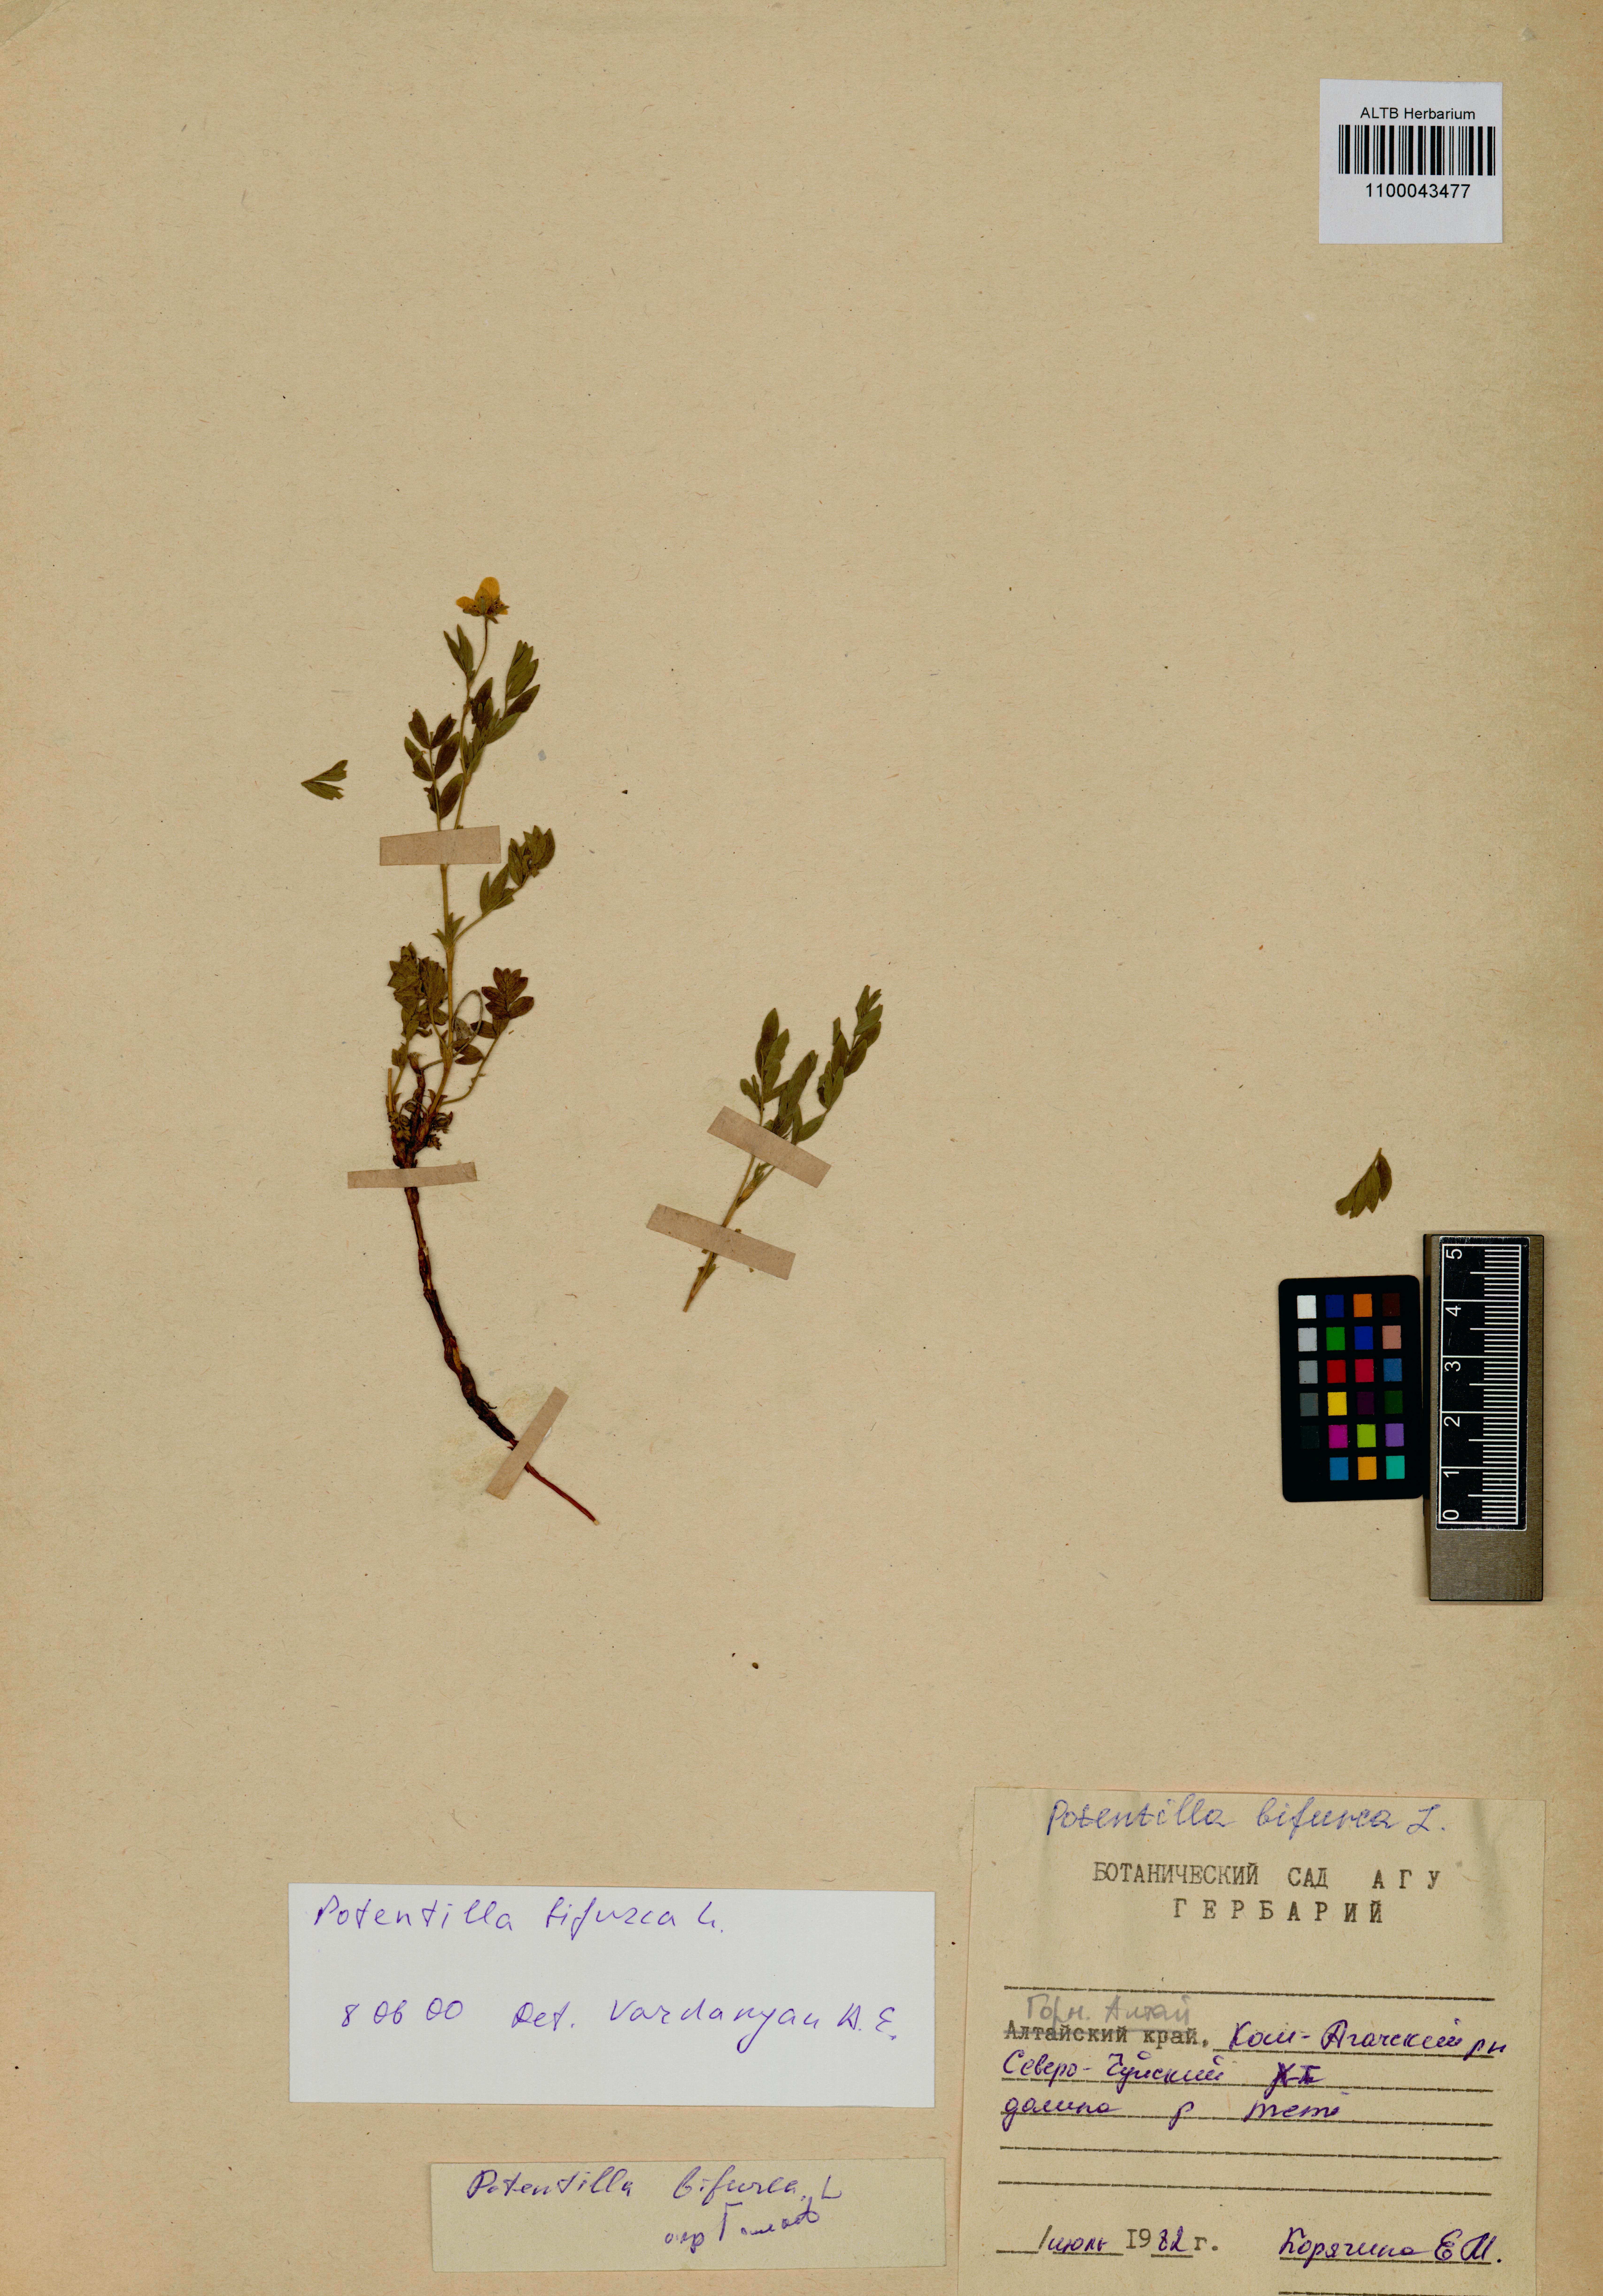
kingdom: Plantae
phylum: Tracheophyta
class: Magnoliopsida
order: Rosales
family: Rosaceae
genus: Sibbaldianthe
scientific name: Sibbaldianthe bifurca
